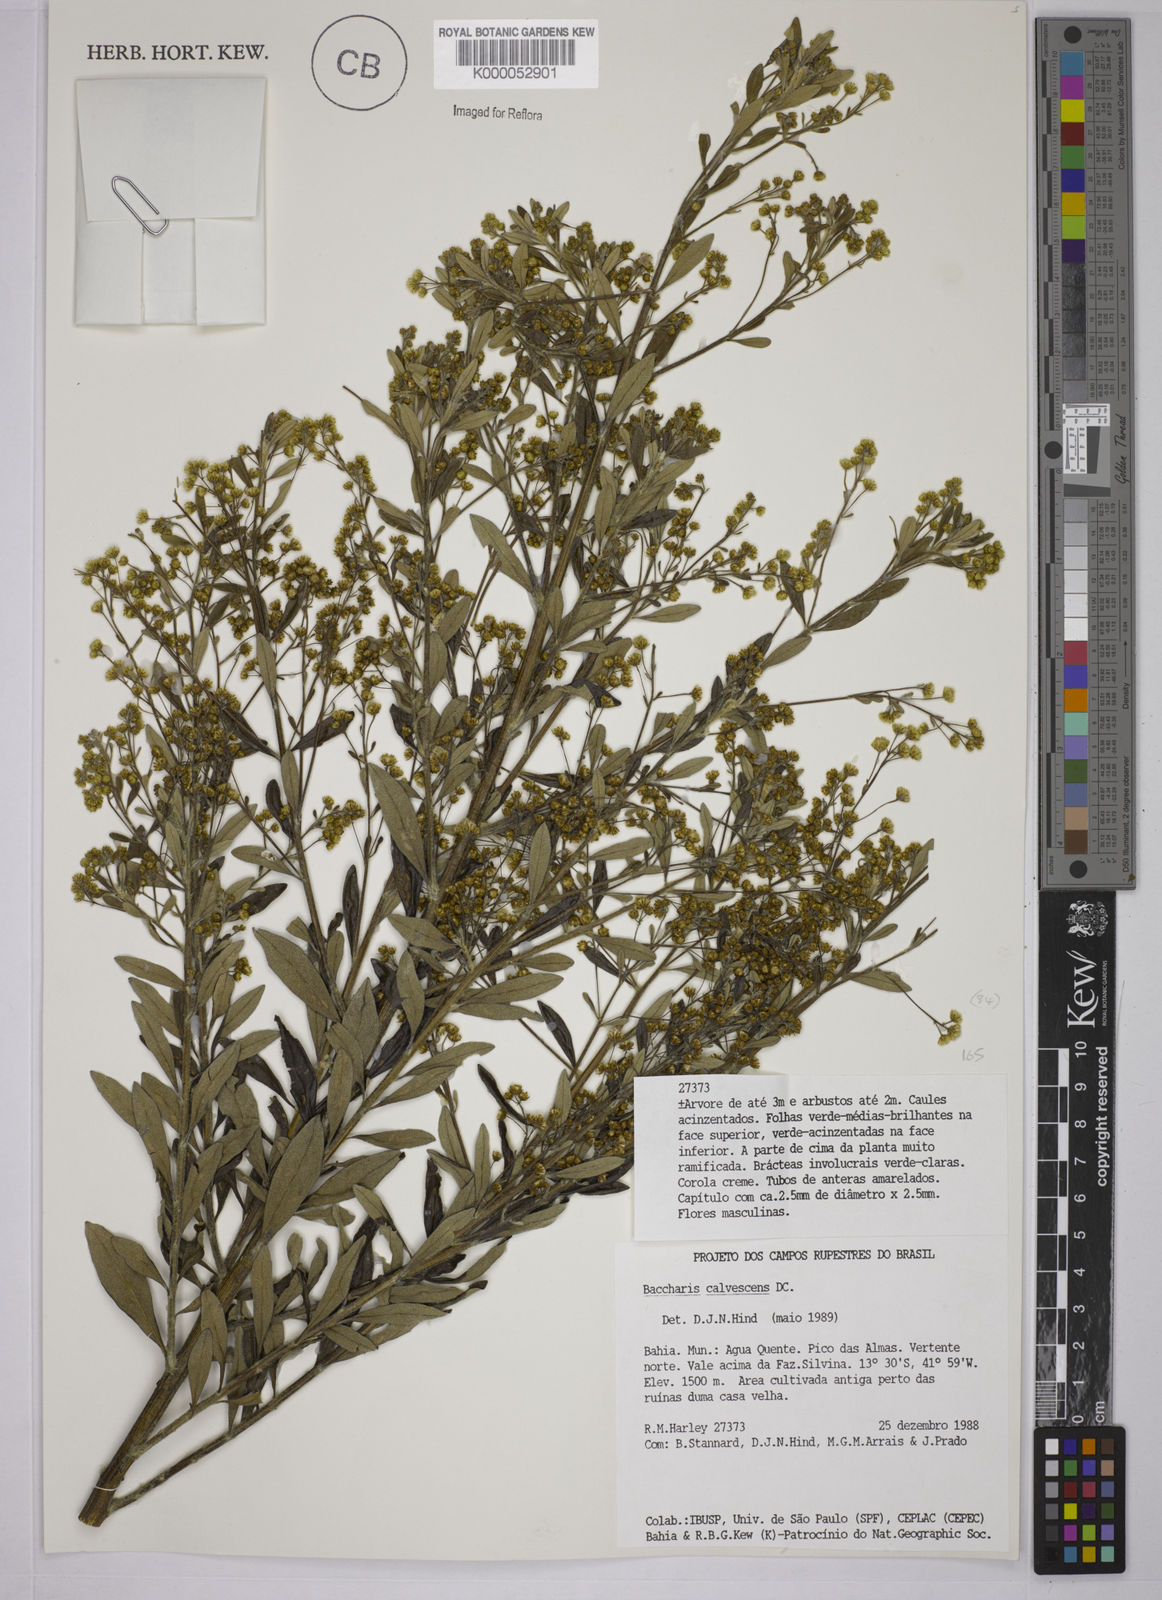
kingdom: Plantae
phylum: Tracheophyta
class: Magnoliopsida
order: Asterales
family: Asteraceae
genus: Baccharis
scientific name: Baccharis calvescens
